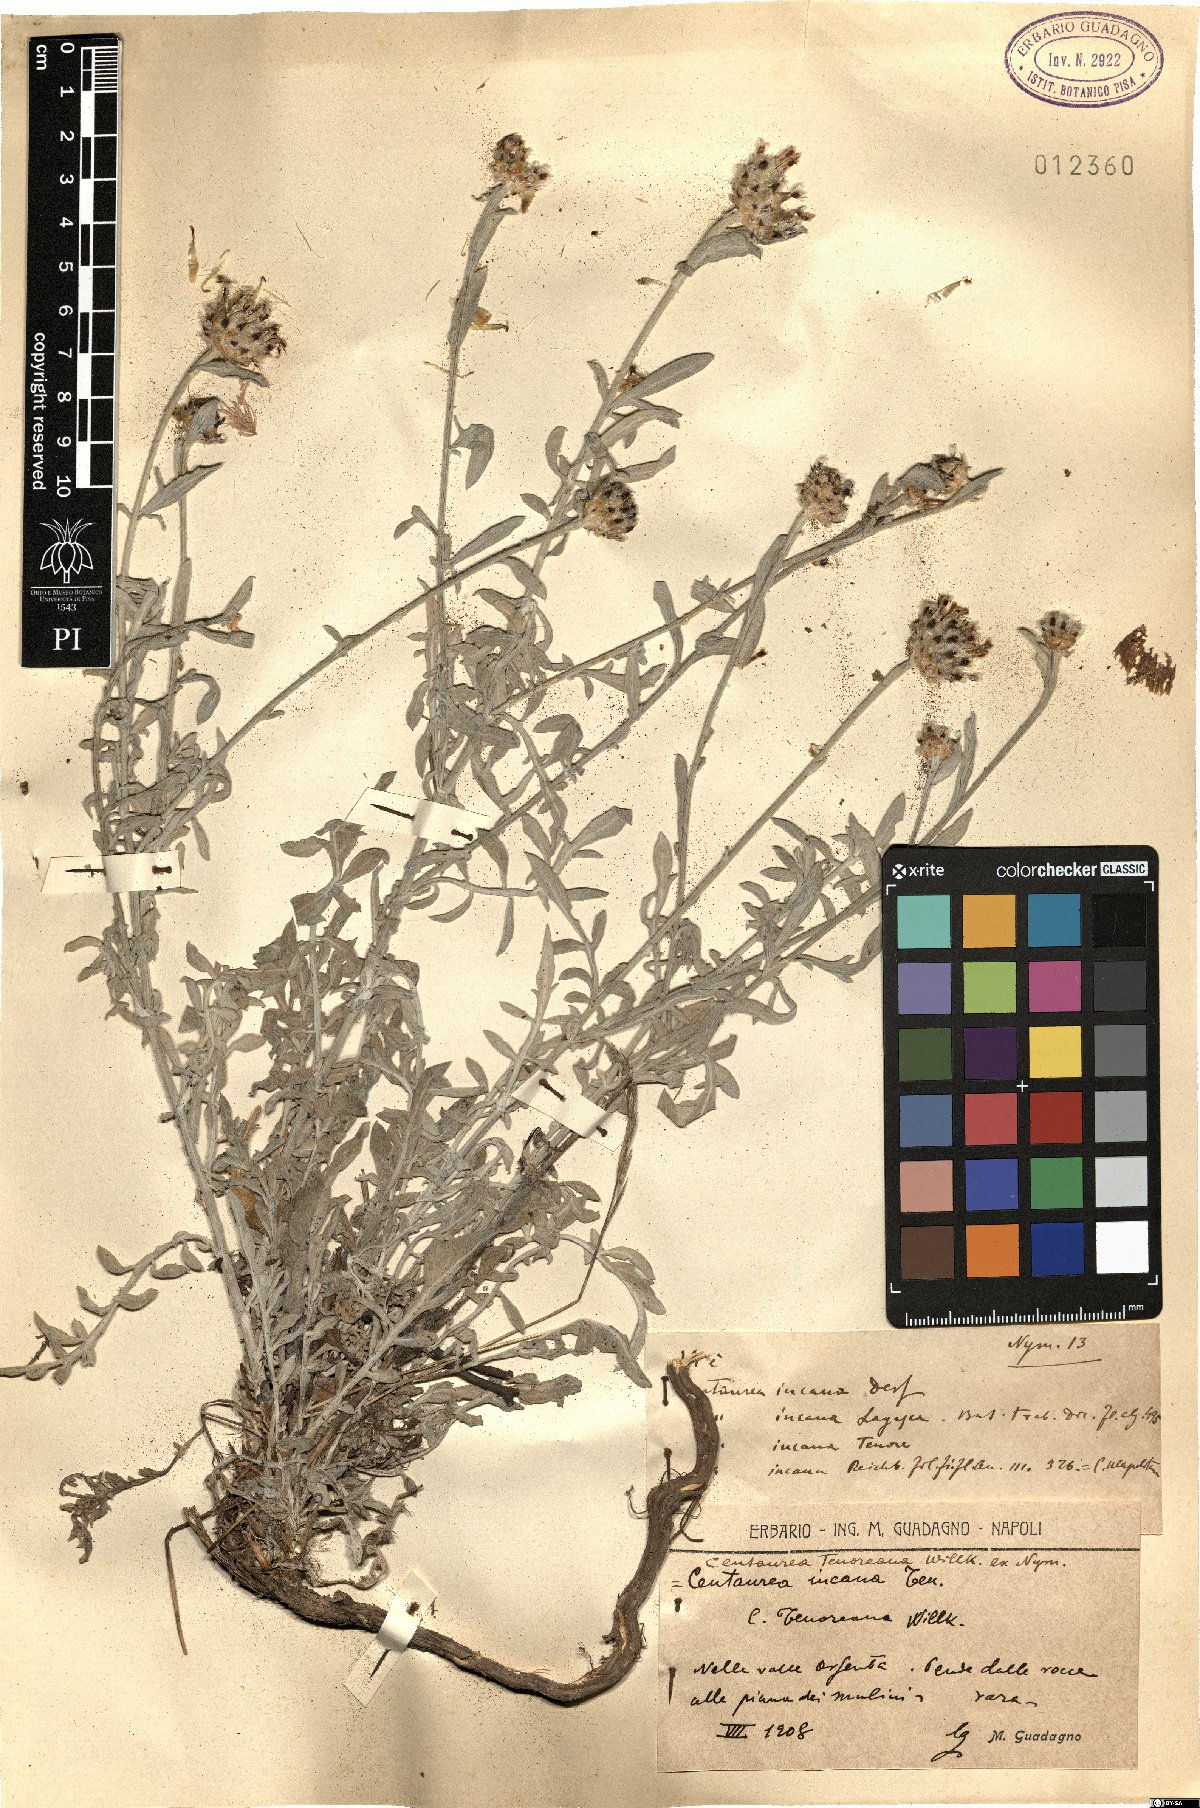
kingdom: Plantae
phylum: Tracheophyta
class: Magnoliopsida
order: Asterales
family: Asteraceae
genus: Centaurea
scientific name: Centaurea tenoreana
